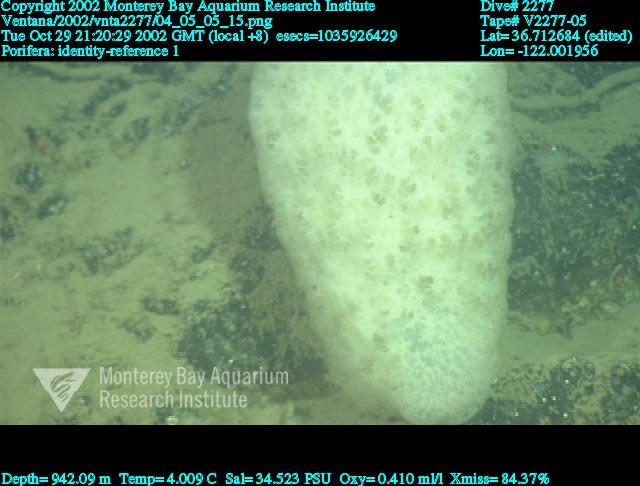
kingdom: Animalia
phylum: Porifera
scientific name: Porifera
